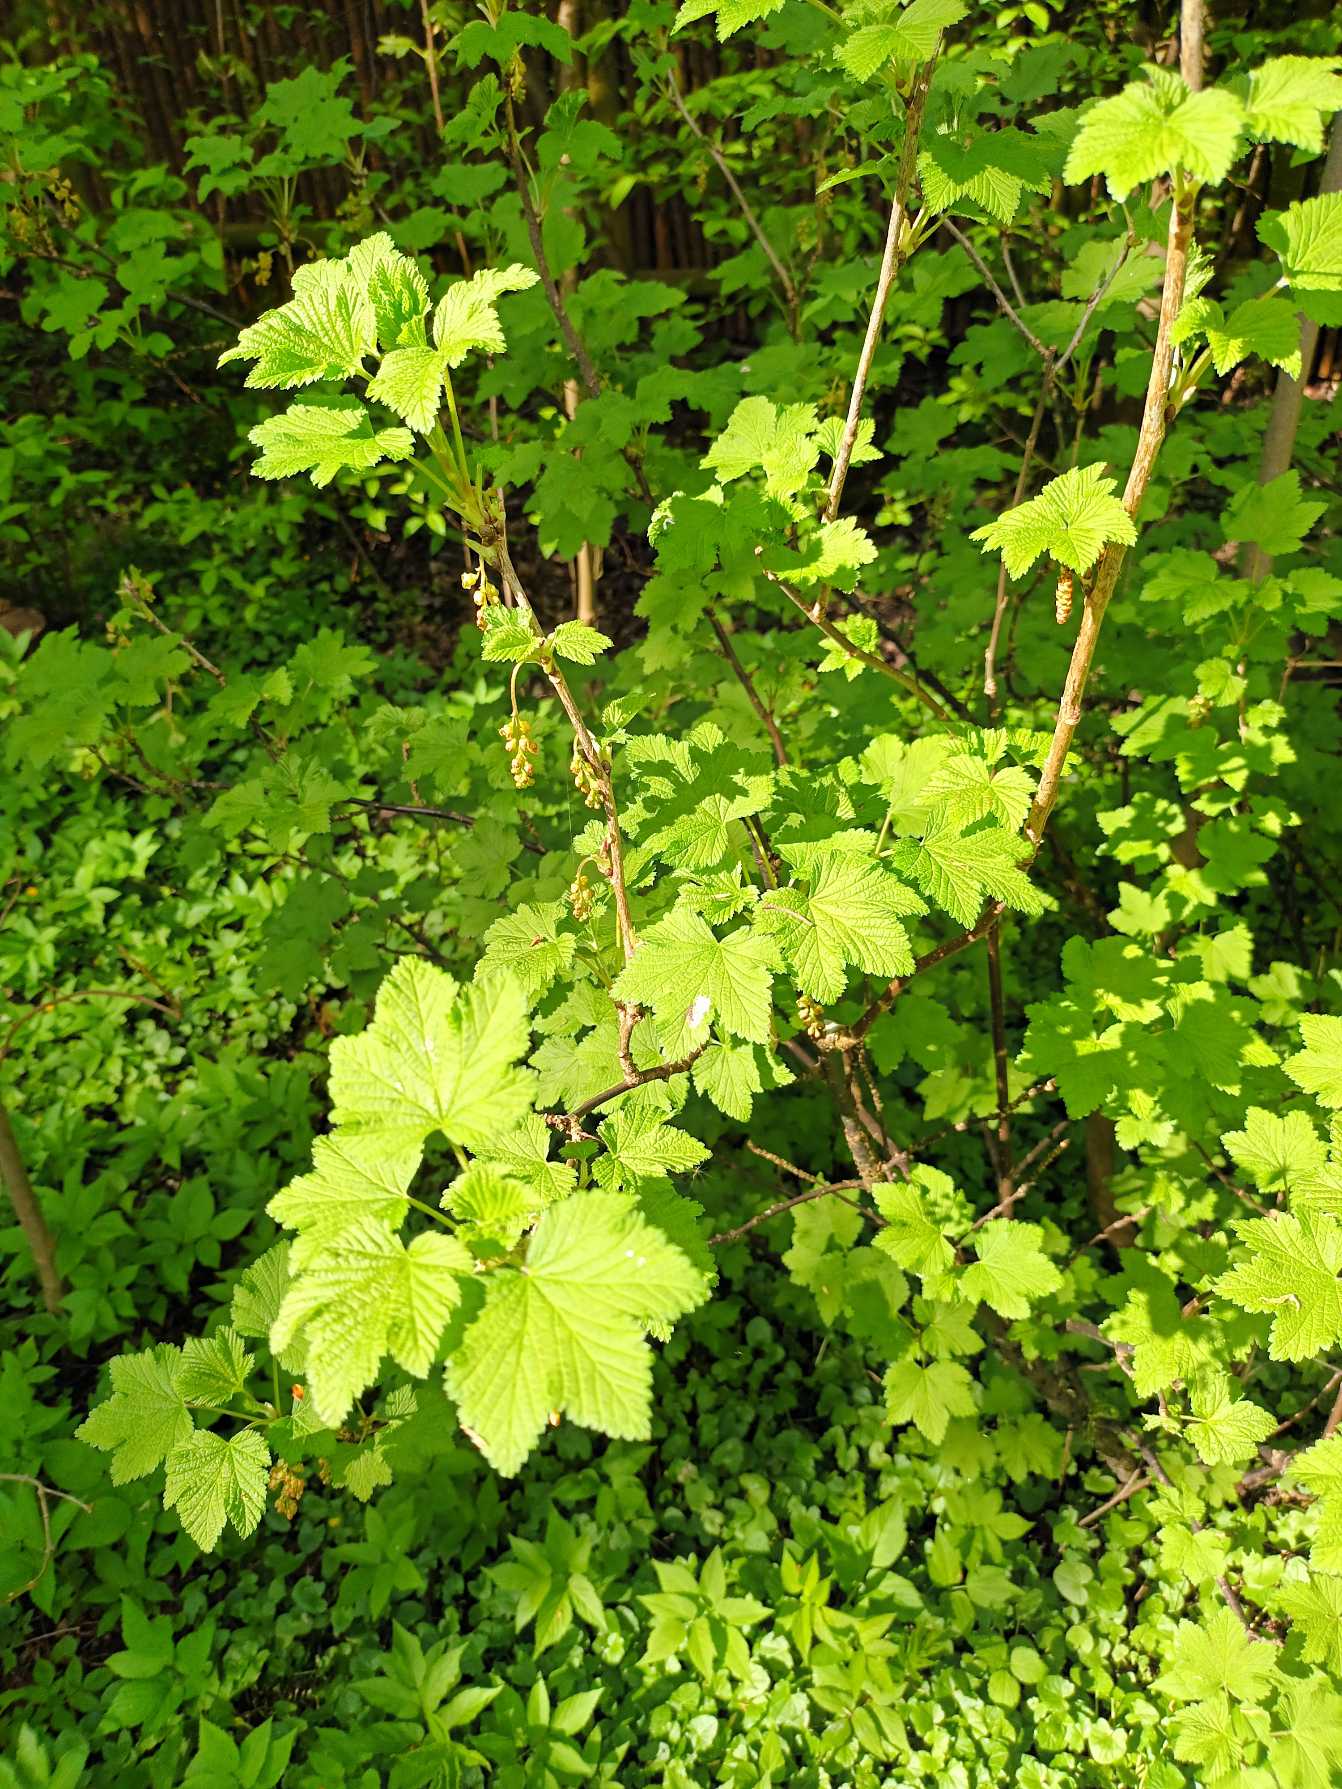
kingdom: Plantae
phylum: Tracheophyta
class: Magnoliopsida
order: Saxifragales
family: Grossulariaceae
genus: Ribes
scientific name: Ribes spicatum
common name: Vild ribs
